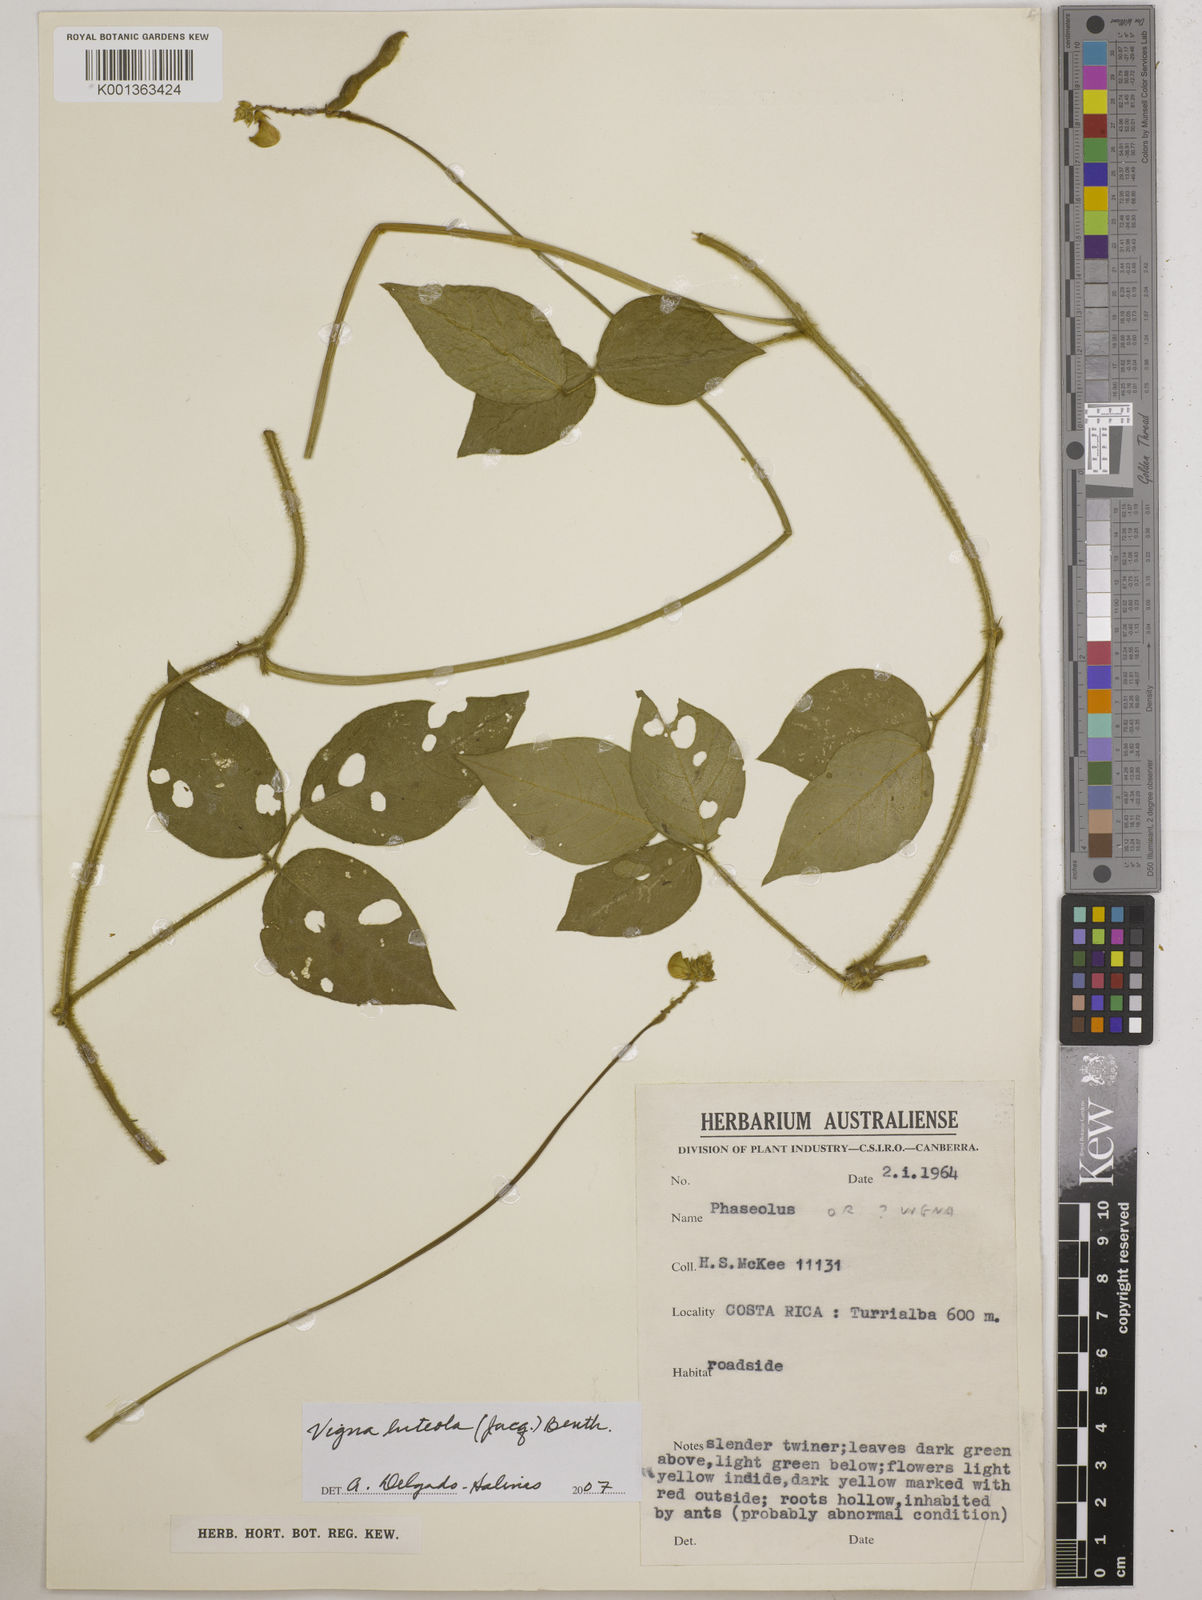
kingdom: Plantae
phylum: Tracheophyta
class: Magnoliopsida
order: Fabales
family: Fabaceae
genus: Vigna
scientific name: Vigna luteola
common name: Hairypod cowpea
